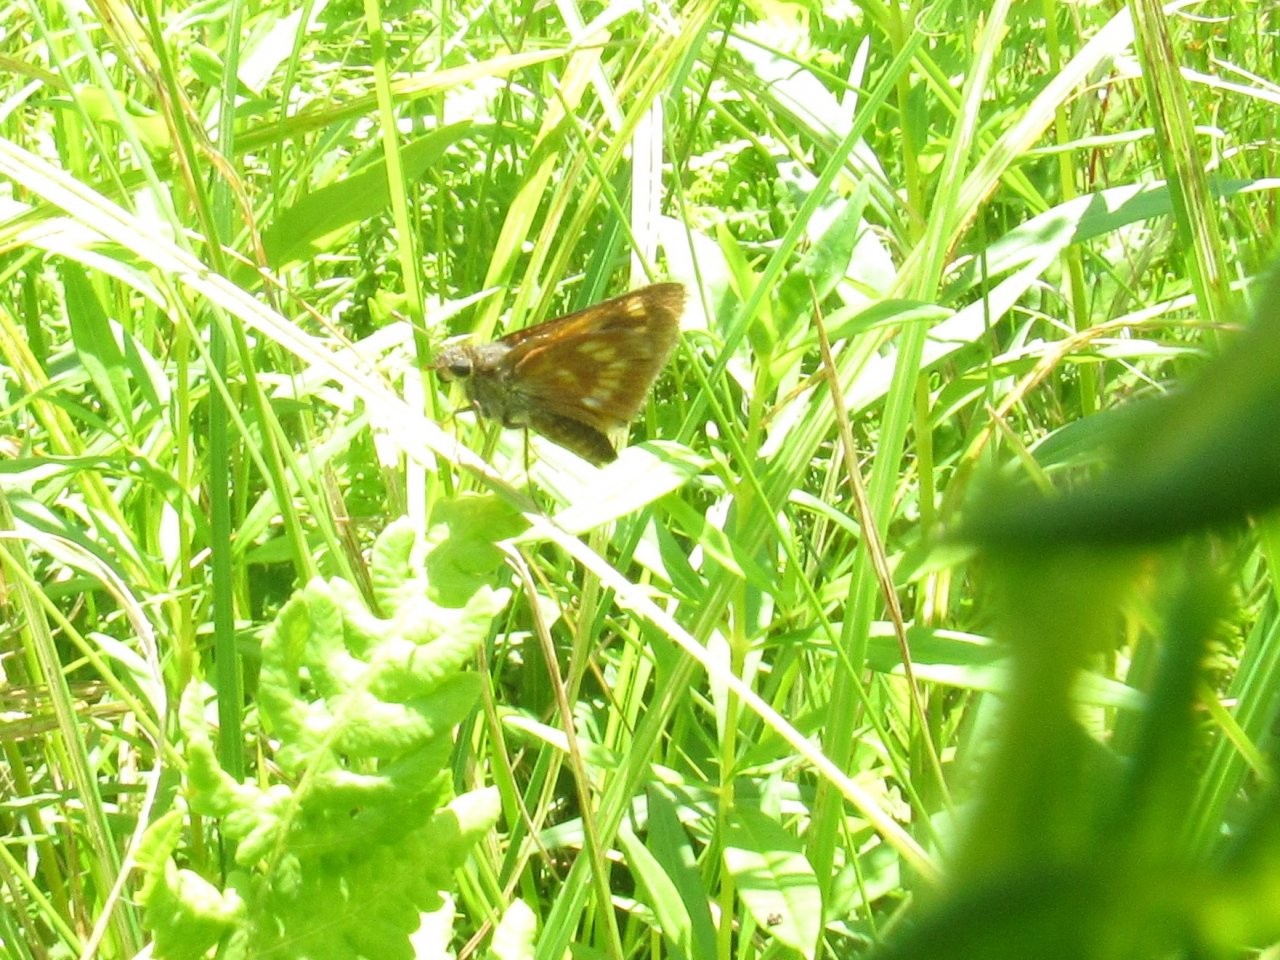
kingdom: Animalia
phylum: Arthropoda
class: Insecta
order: Lepidoptera
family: Hesperiidae
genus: Polites
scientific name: Polites
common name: Long Dash Skipper
